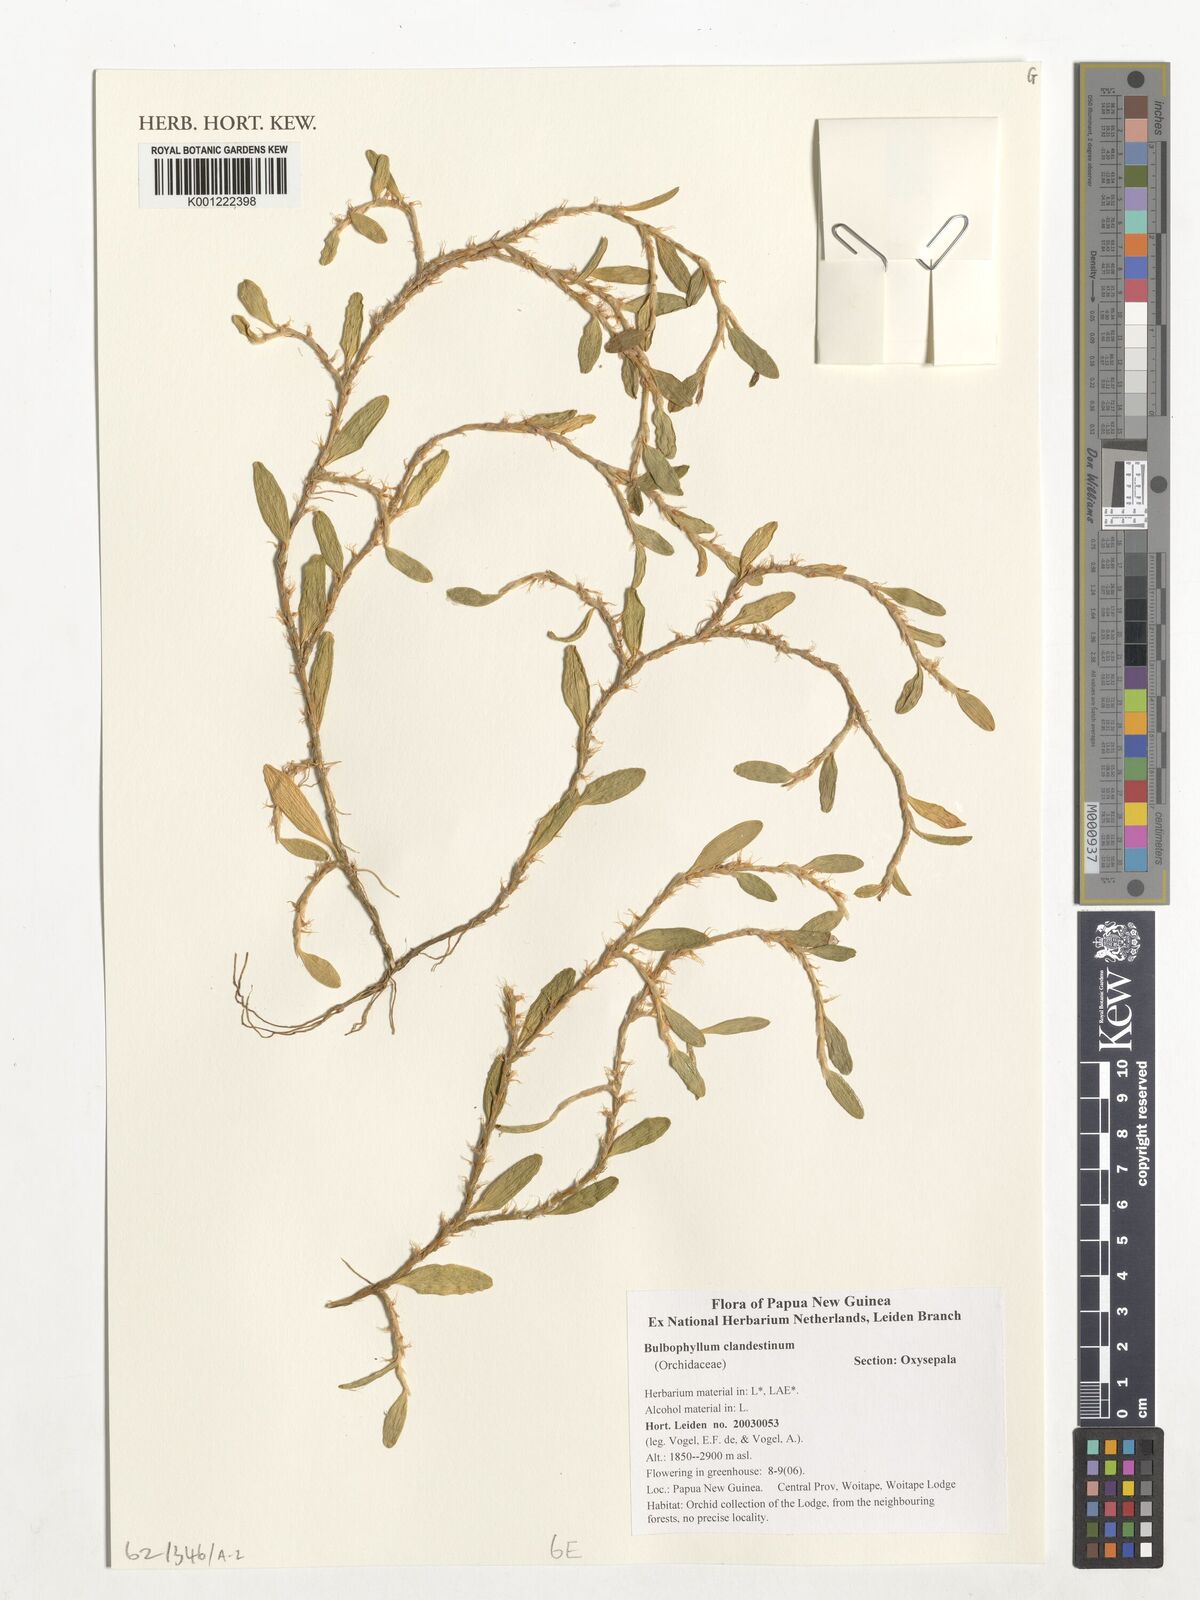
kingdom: Plantae
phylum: Tracheophyta
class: Liliopsida
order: Asparagales
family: Orchidaceae
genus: Bulbophyllum
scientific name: Bulbophyllum clandestinum
